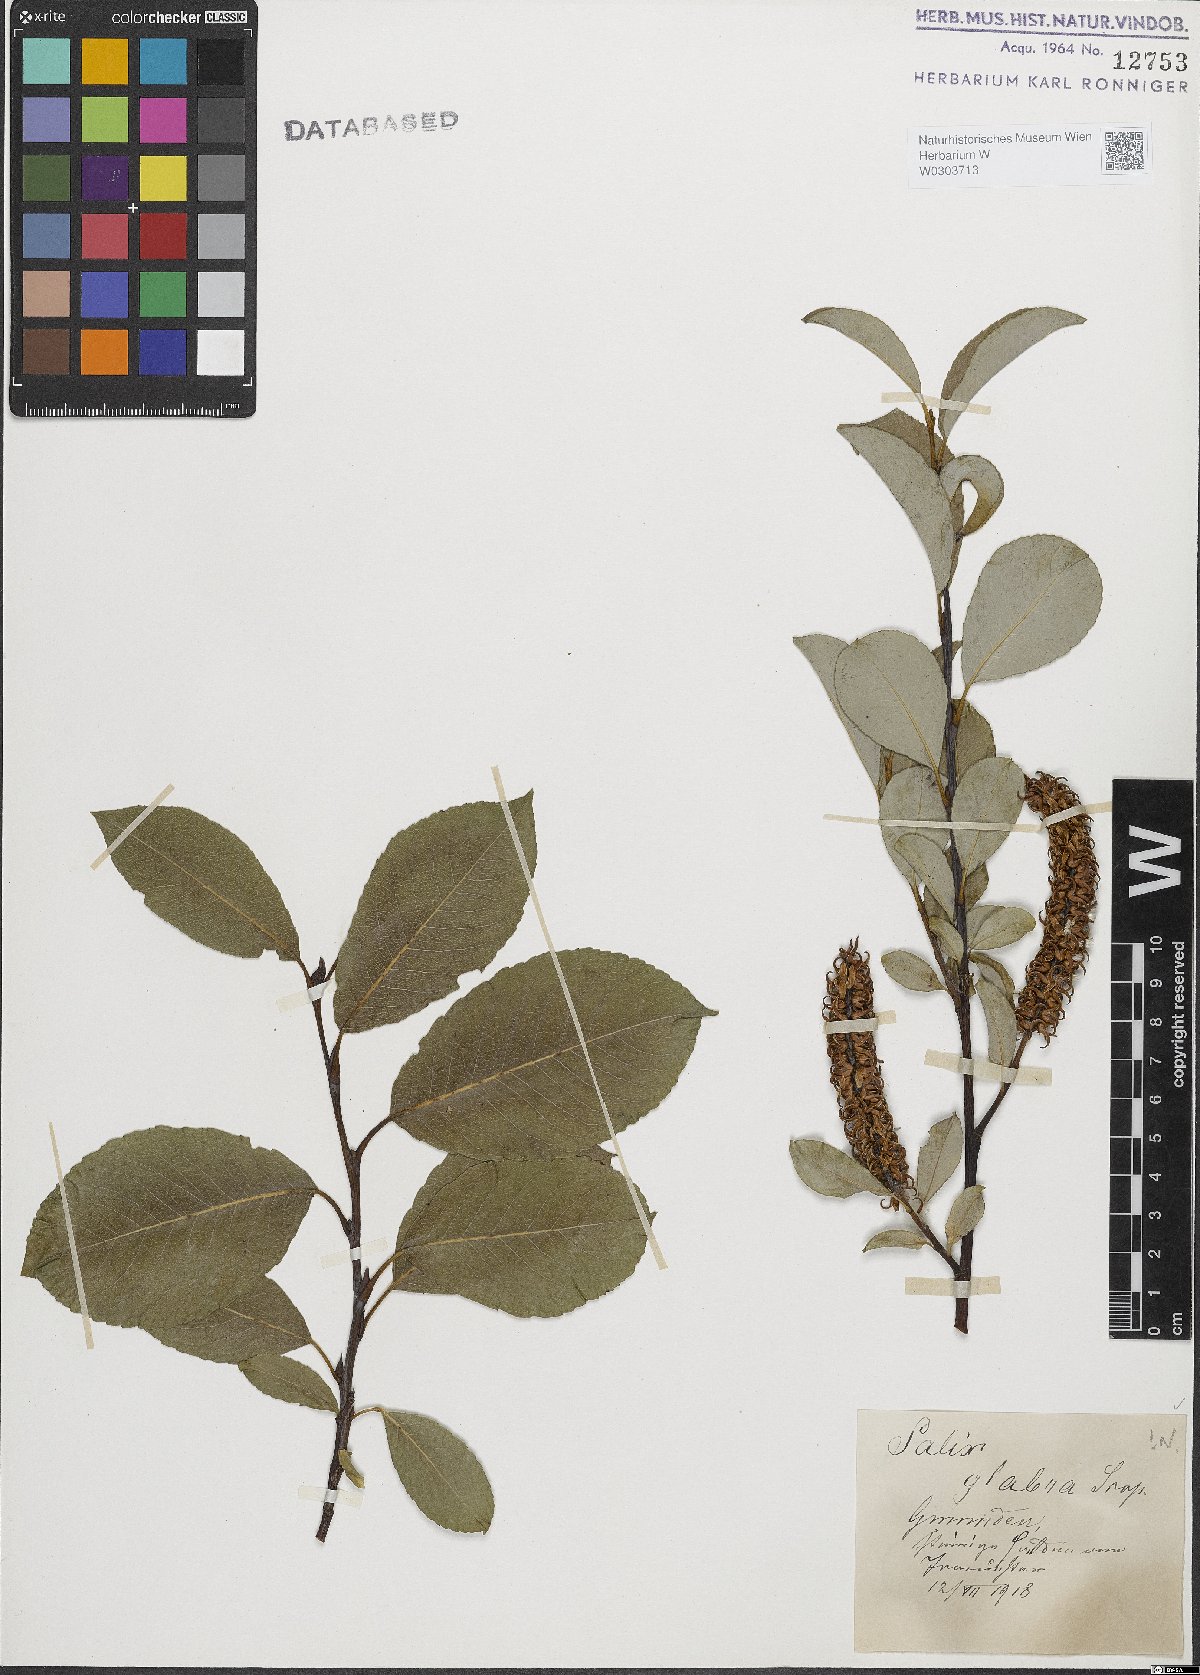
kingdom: Plantae
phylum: Tracheophyta
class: Magnoliopsida
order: Malpighiales
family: Salicaceae
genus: Salix
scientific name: Salix glabra
